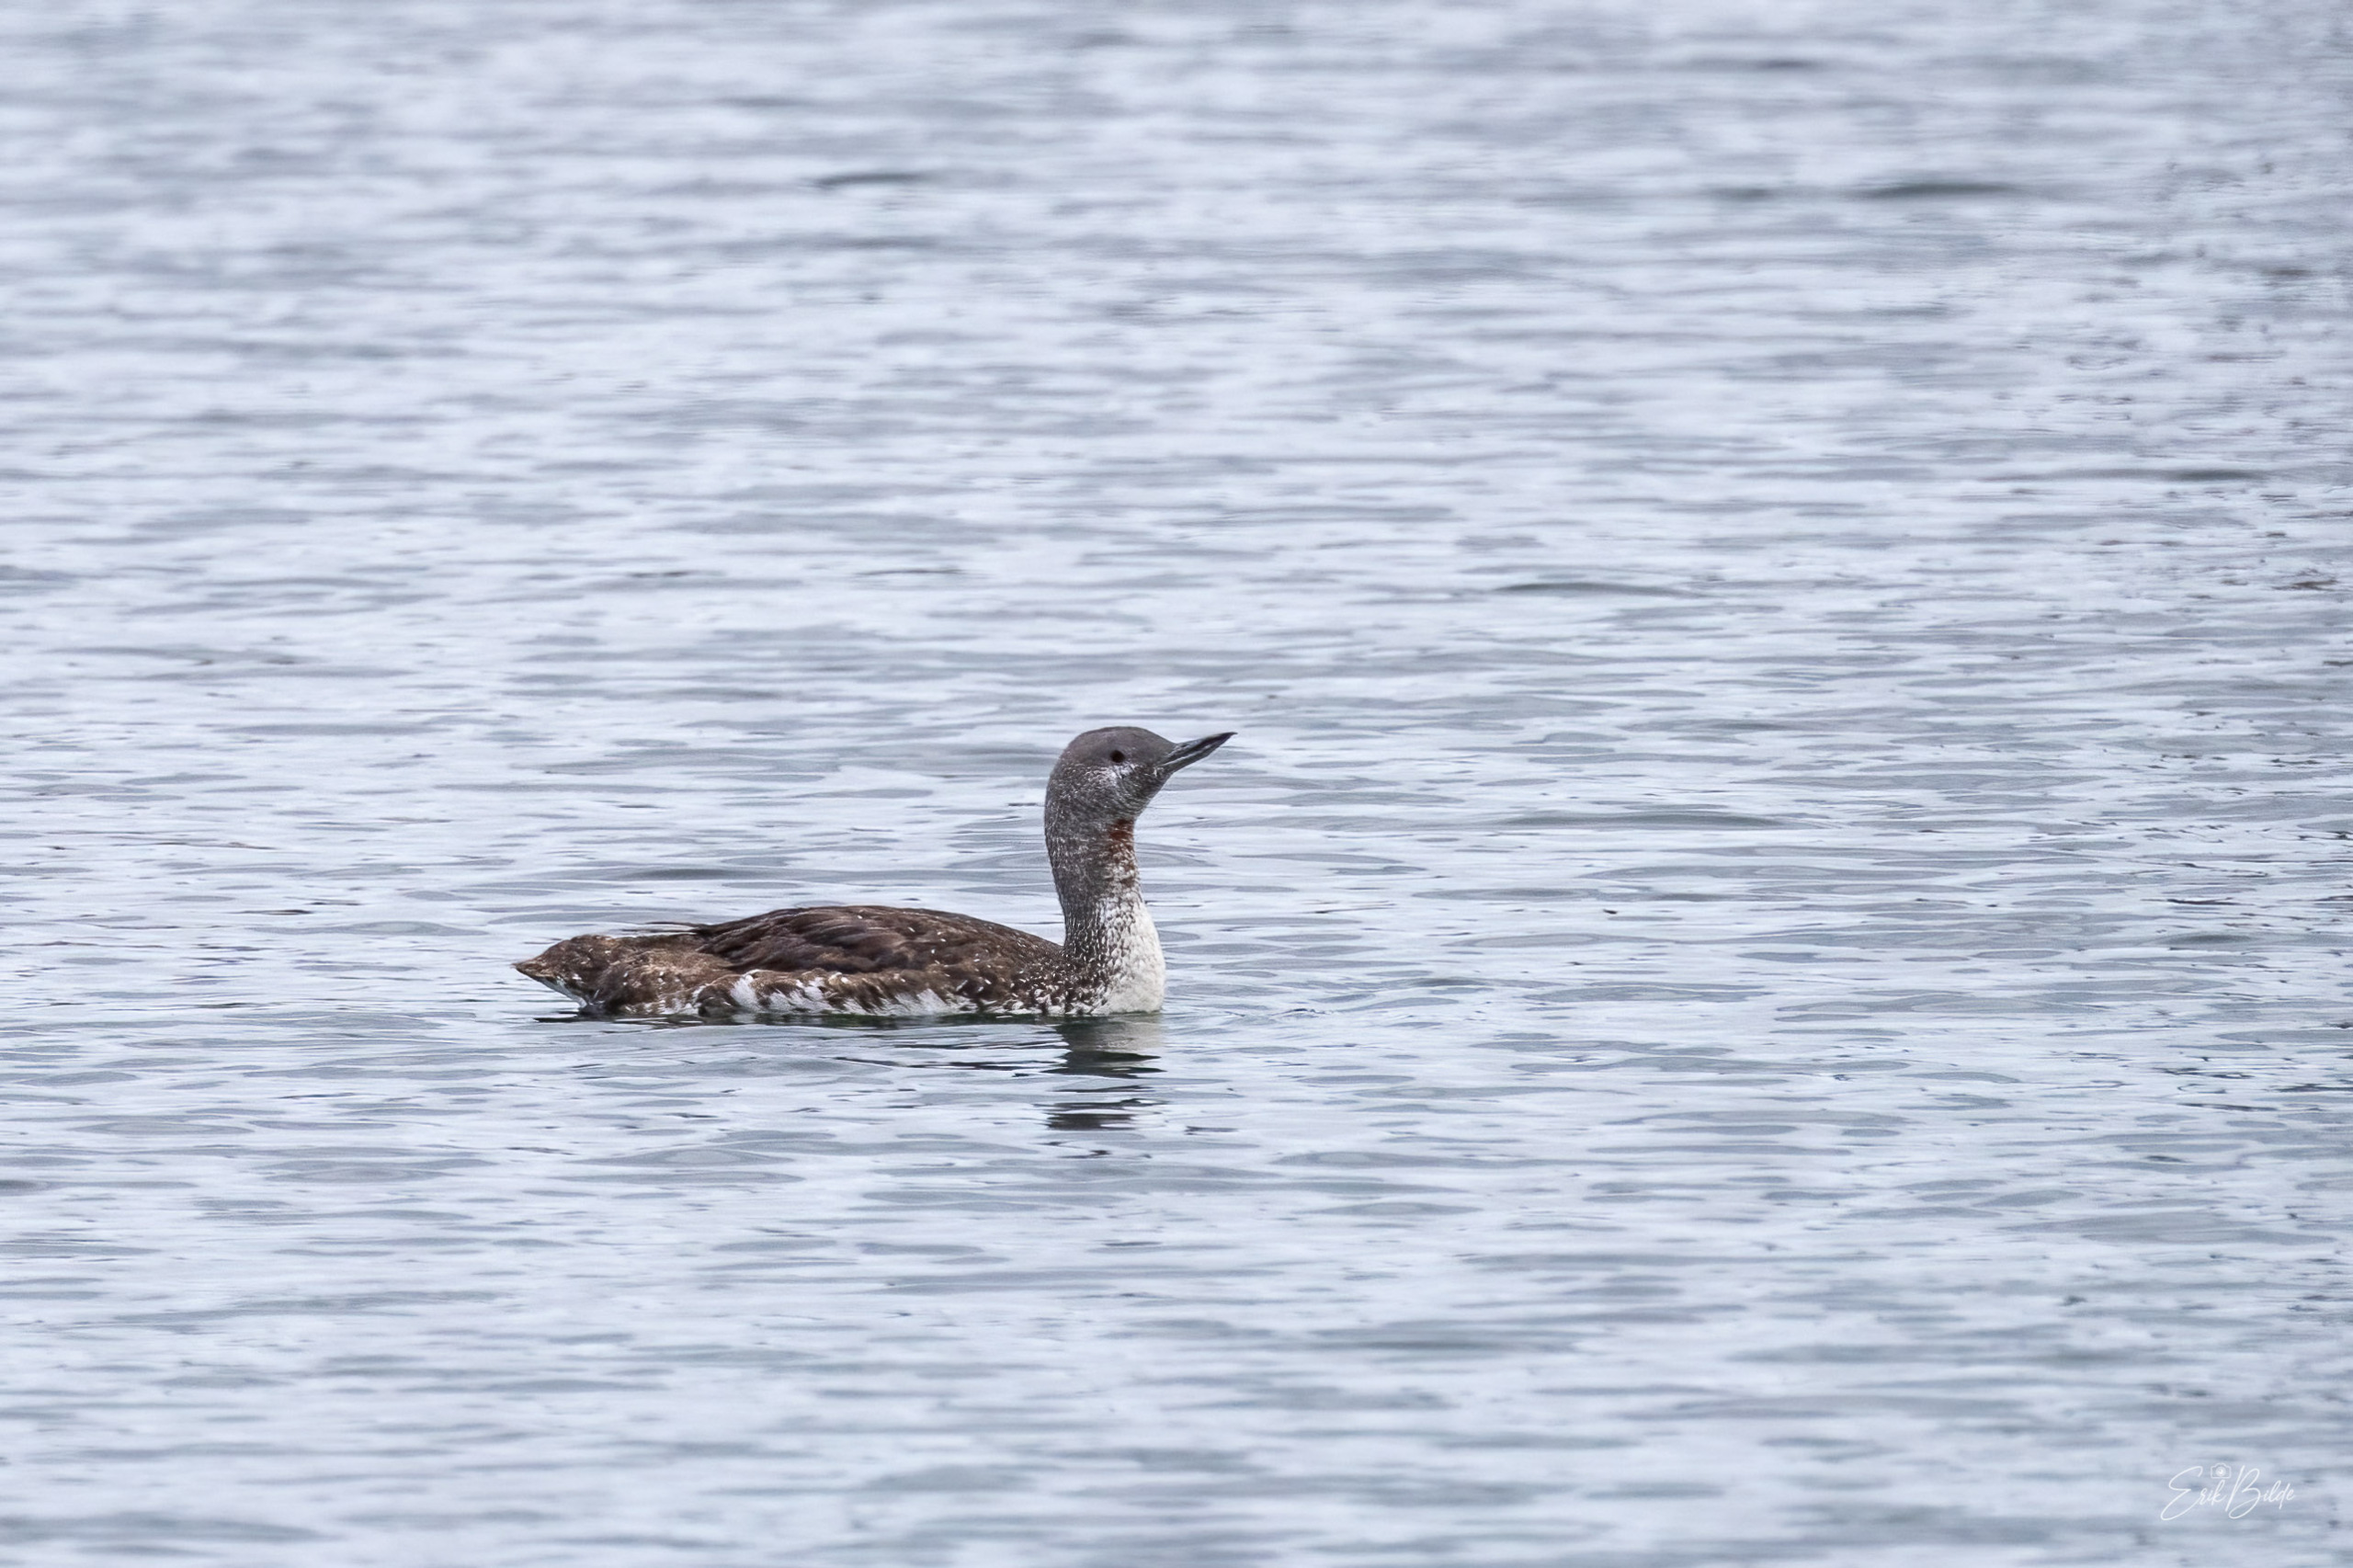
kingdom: Animalia
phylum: Chordata
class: Aves
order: Gaviiformes
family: Gaviidae
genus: Gavia
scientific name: Gavia stellata
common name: Rødstrubet lom
